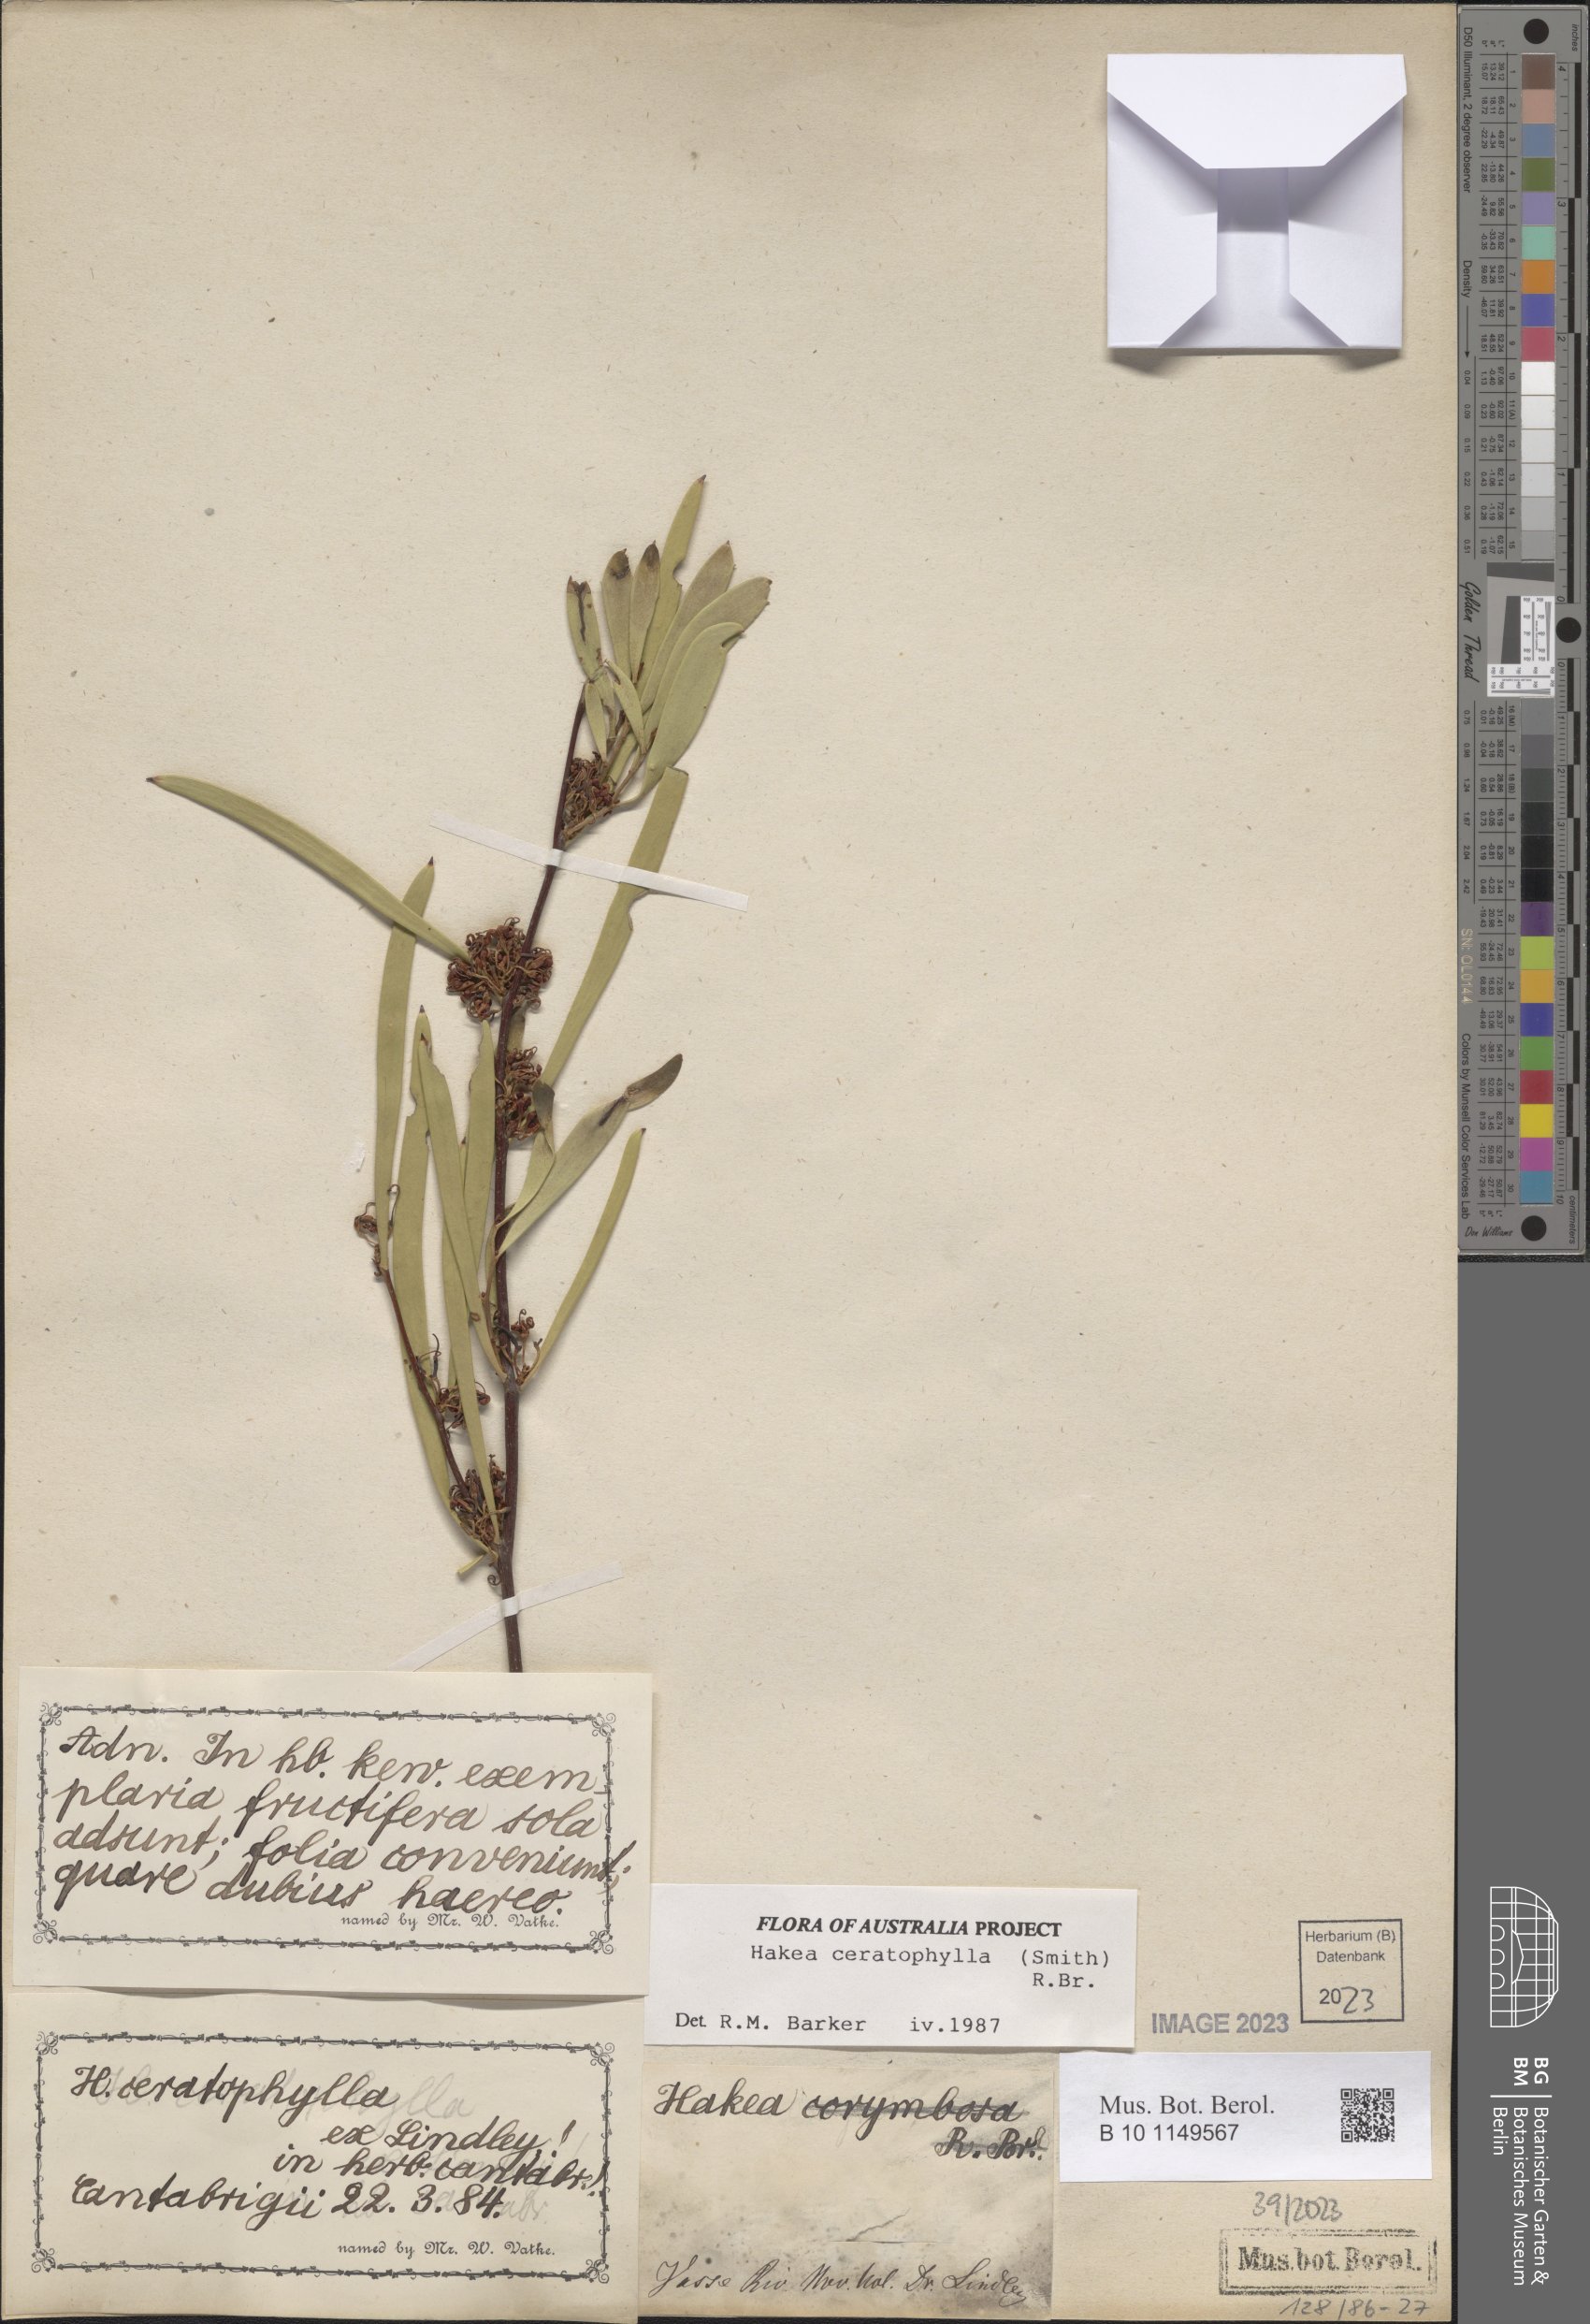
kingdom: Plantae
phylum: Tracheophyta
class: Magnoliopsida
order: Proteales
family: Proteaceae
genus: Hakea
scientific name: Hakea ceratophylla
